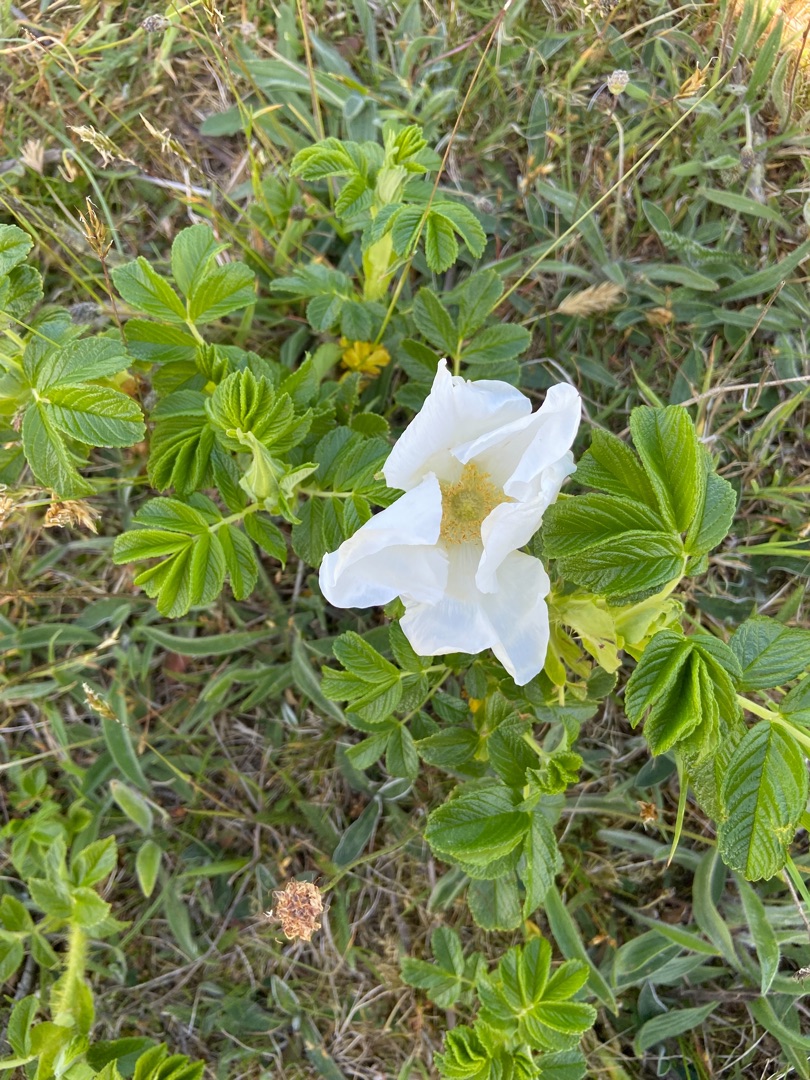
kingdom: Plantae
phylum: Tracheophyta
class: Magnoliopsida
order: Rosales
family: Rosaceae
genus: Rosa
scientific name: Rosa rugosa
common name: Rynket rose
